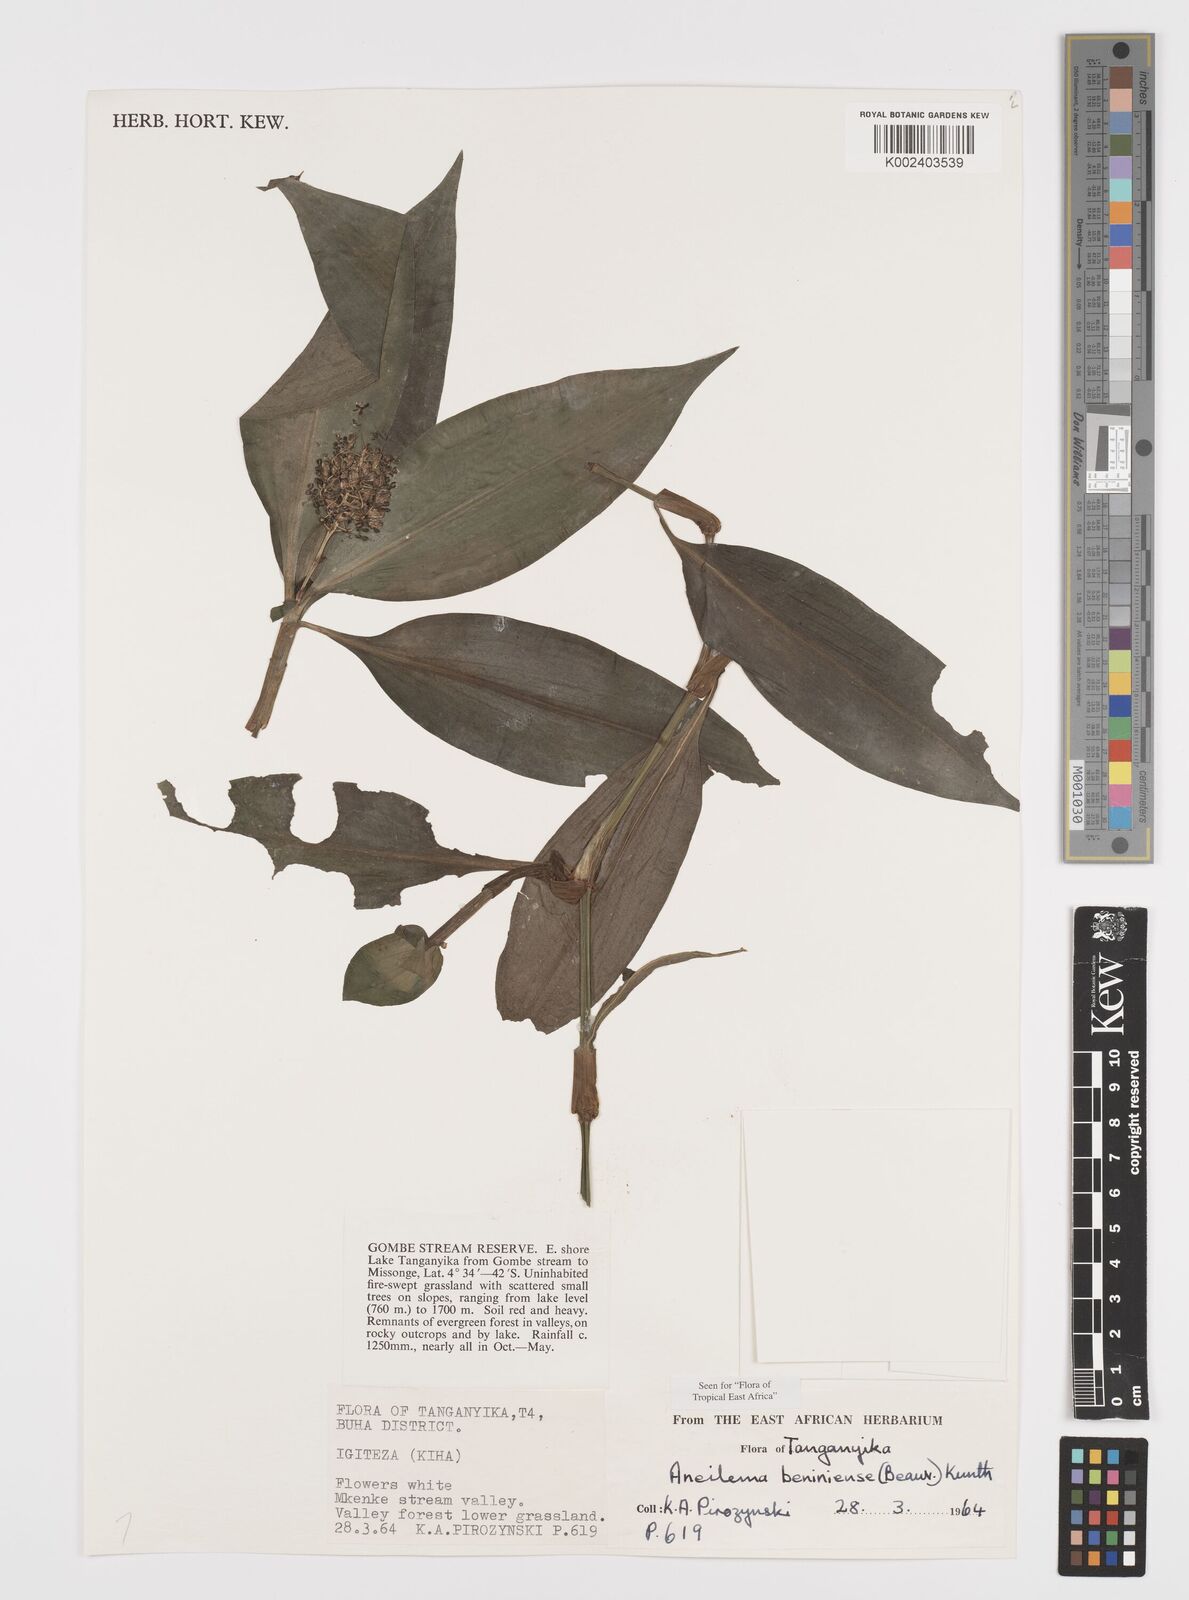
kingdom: Plantae
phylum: Tracheophyta
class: Liliopsida
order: Commelinales
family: Commelinaceae
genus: Aneilema
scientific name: Aneilema beniniense
